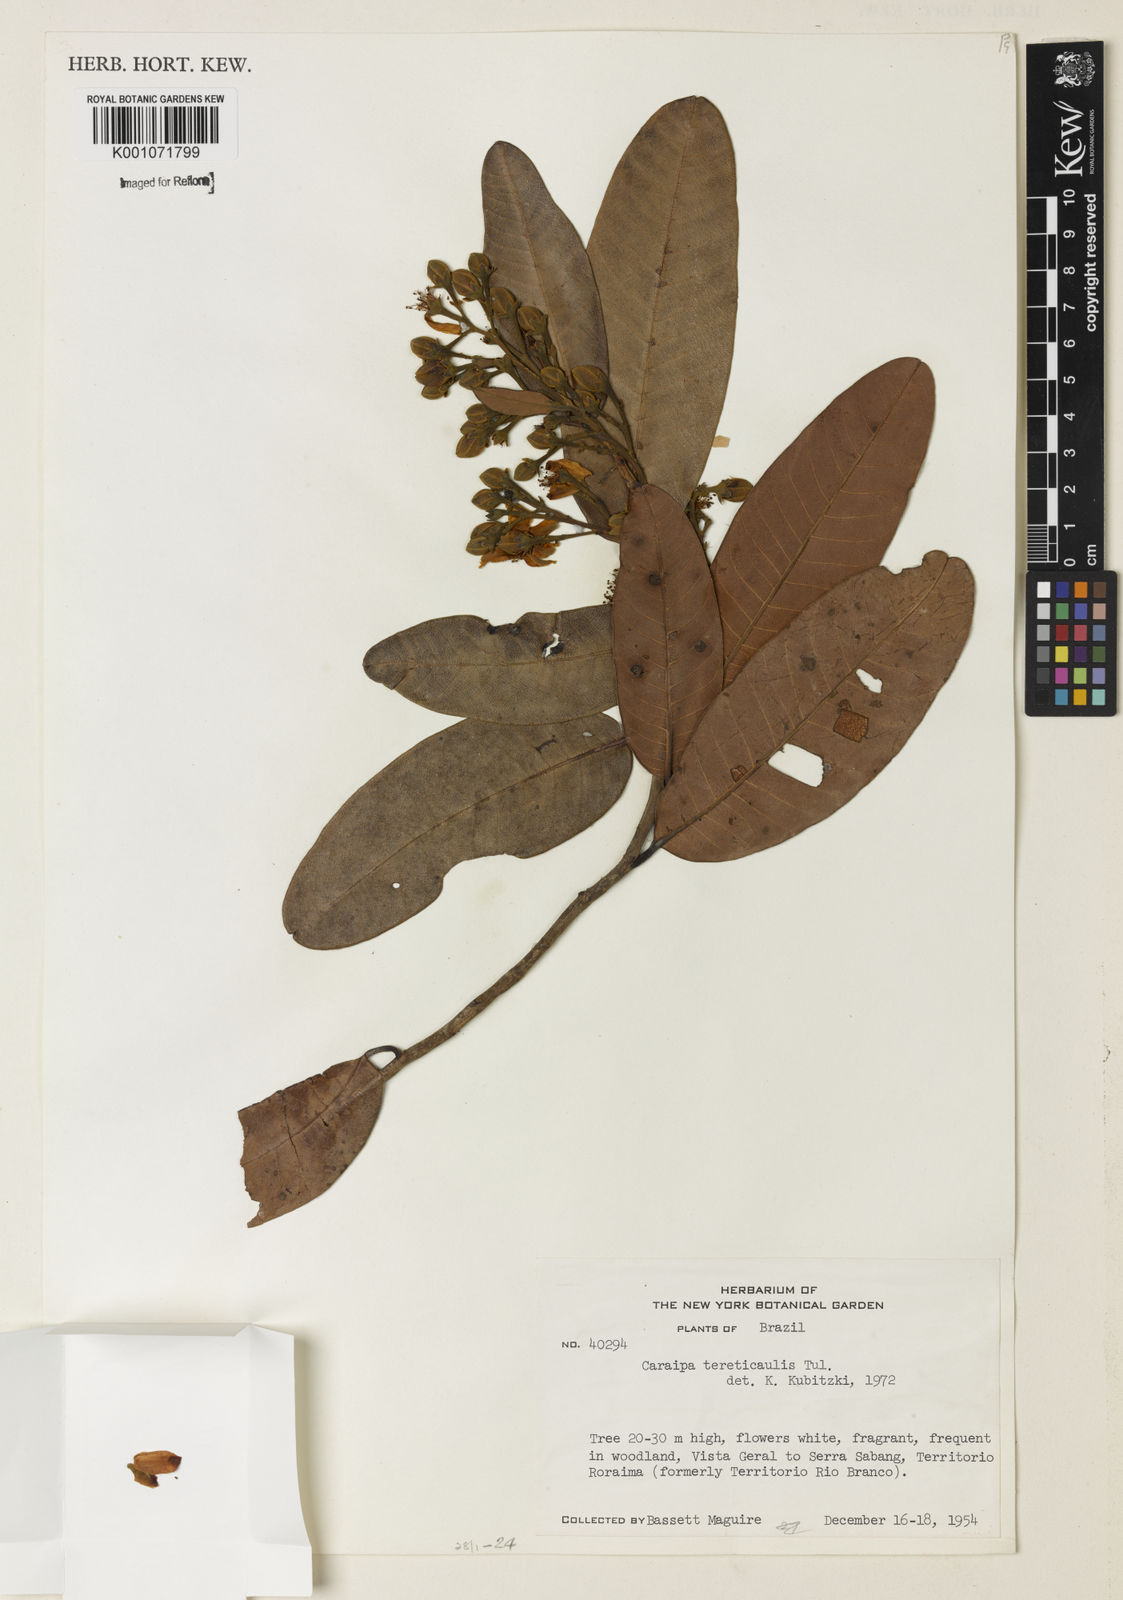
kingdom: Plantae
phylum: Tracheophyta
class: Magnoliopsida
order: Malpighiales
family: Calophyllaceae
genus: Caraipa
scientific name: Caraipa
